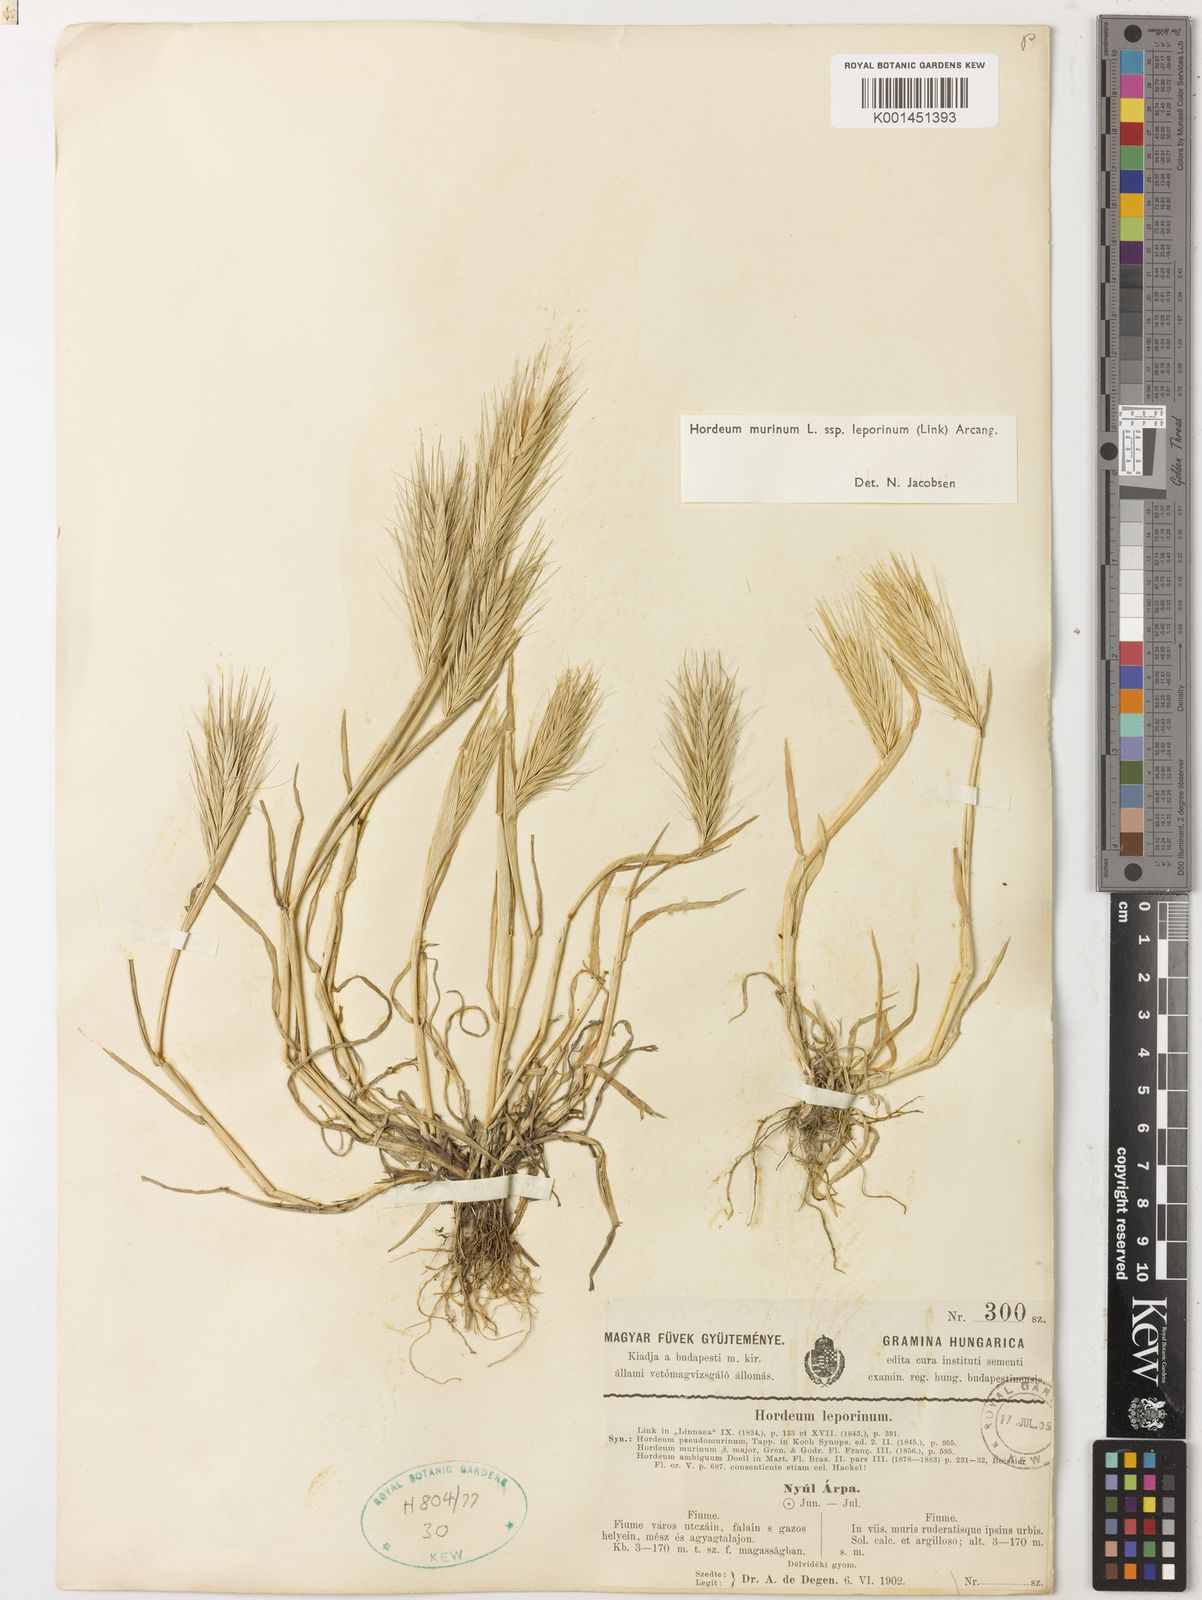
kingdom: Plantae
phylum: Tracheophyta
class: Liliopsida
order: Poales
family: Poaceae
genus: Hordeum
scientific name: Hordeum murinum
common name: Wall barley
